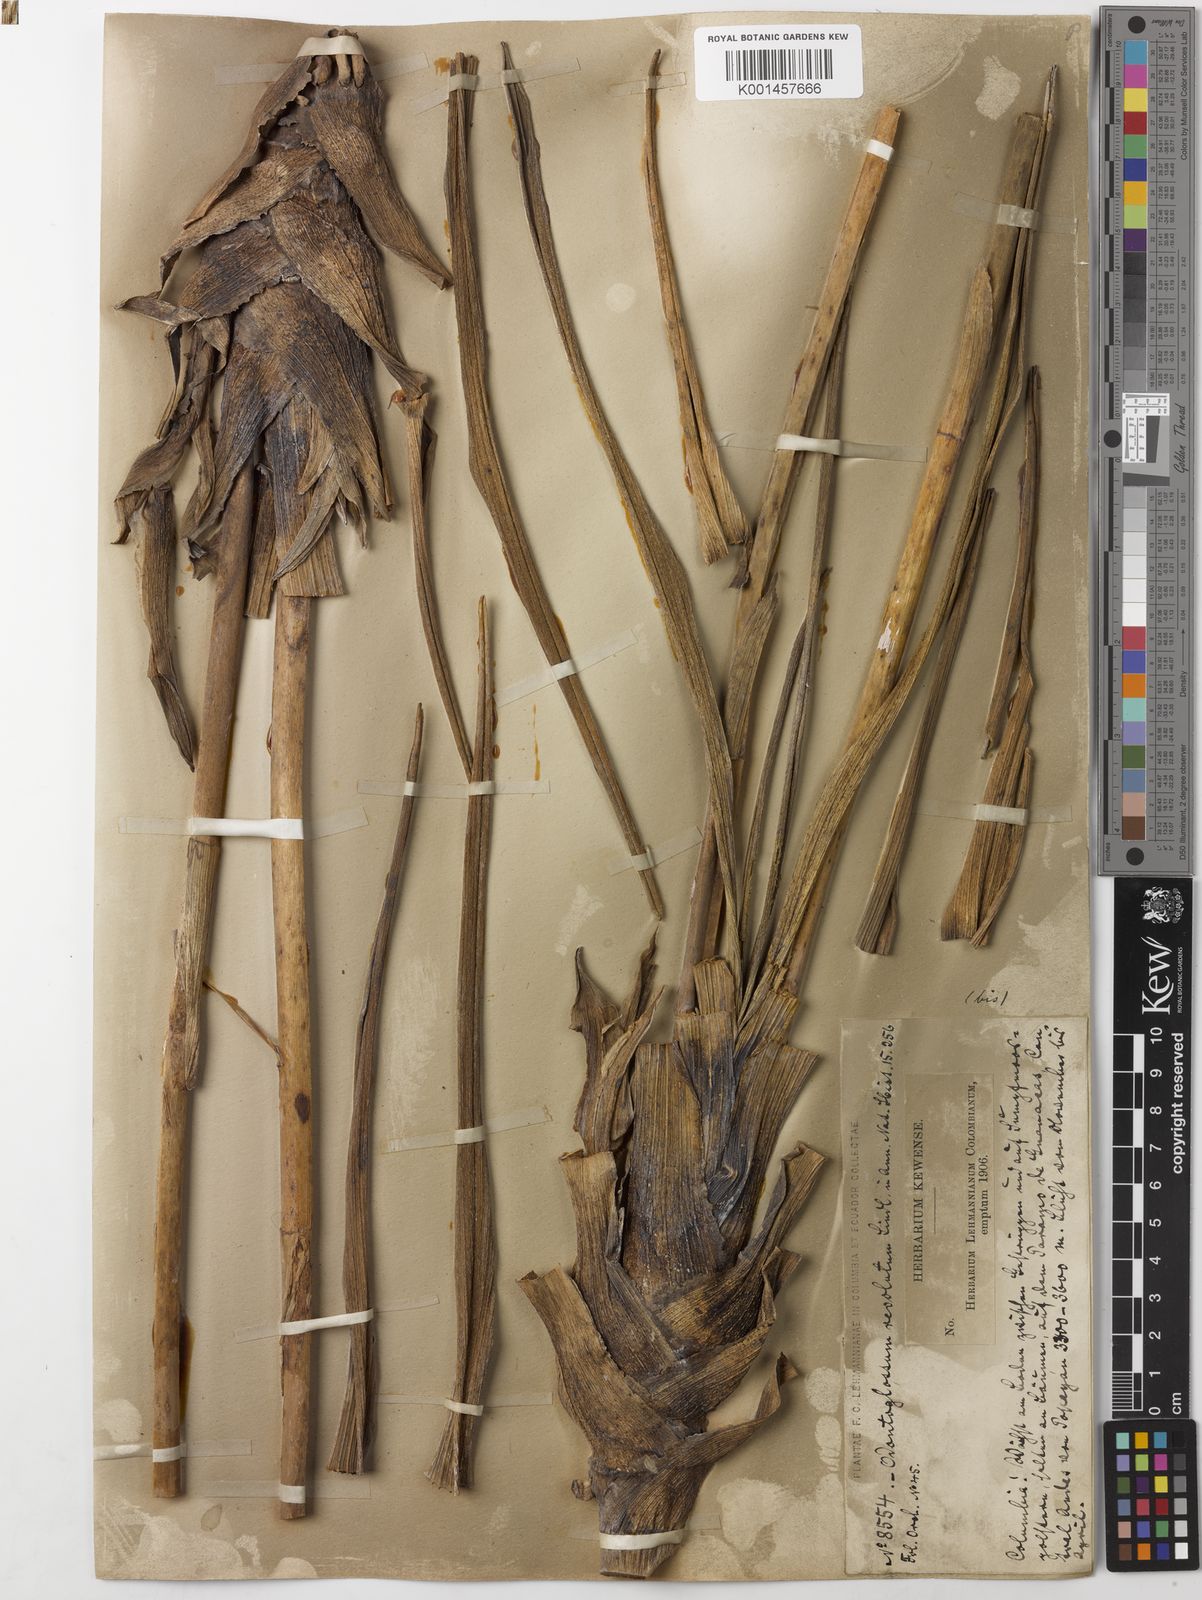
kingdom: Plantae
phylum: Tracheophyta
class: Liliopsida
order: Asparagales
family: Orchidaceae
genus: Cyrtochilum
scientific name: Cyrtochilum
